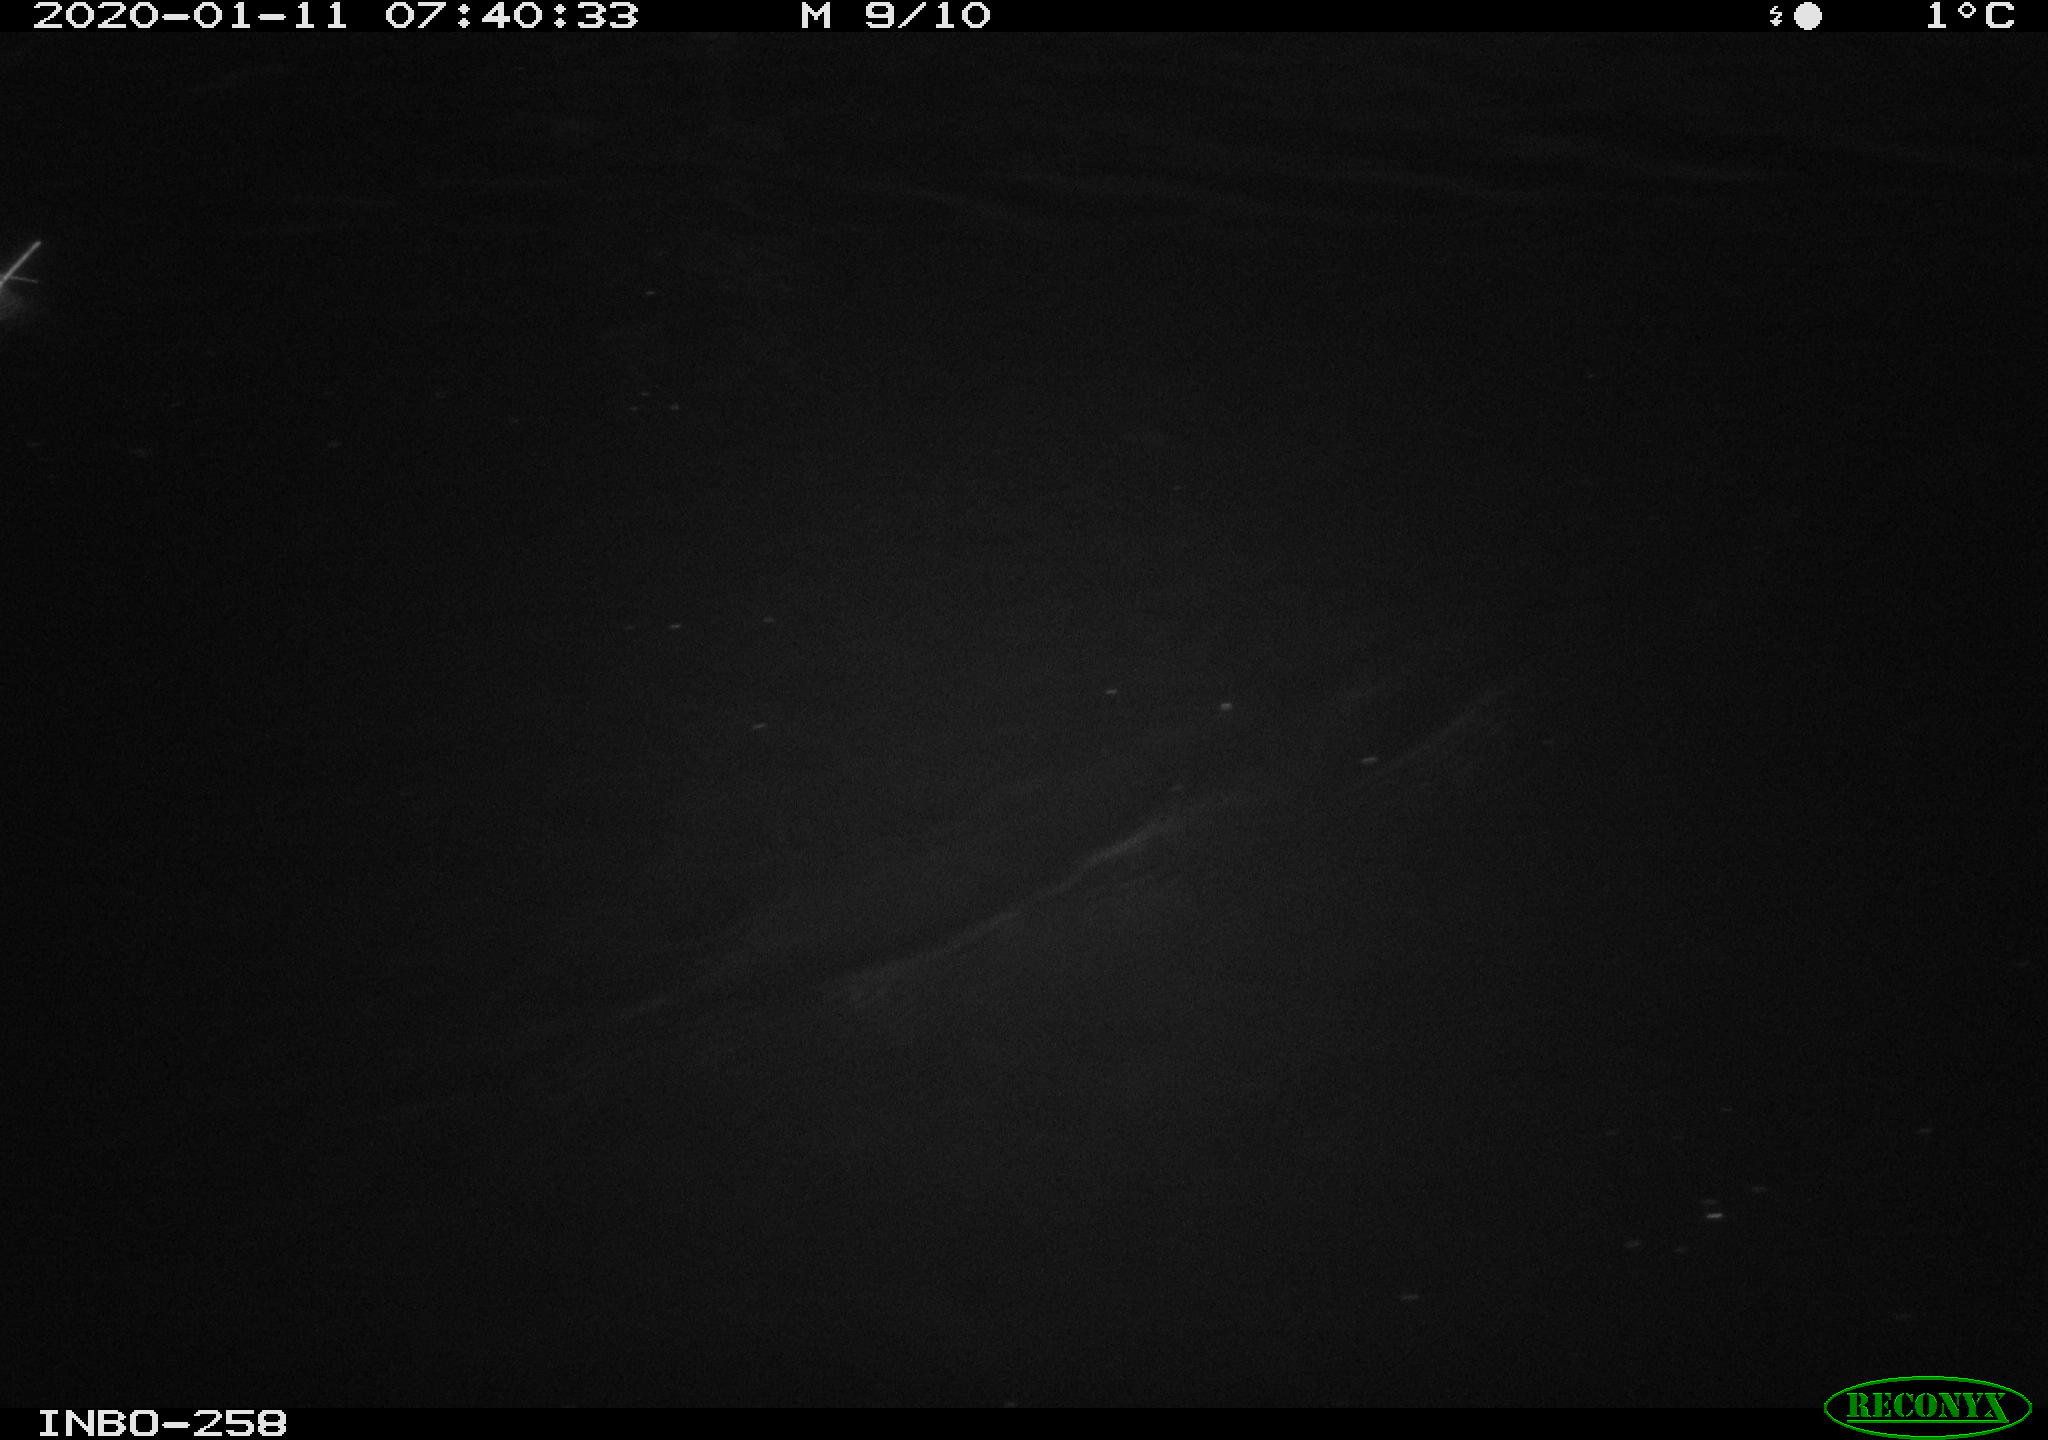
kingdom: Animalia
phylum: Chordata
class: Aves
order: Anseriformes
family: Anatidae
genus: Anas
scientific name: Anas platyrhynchos
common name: Mallard
